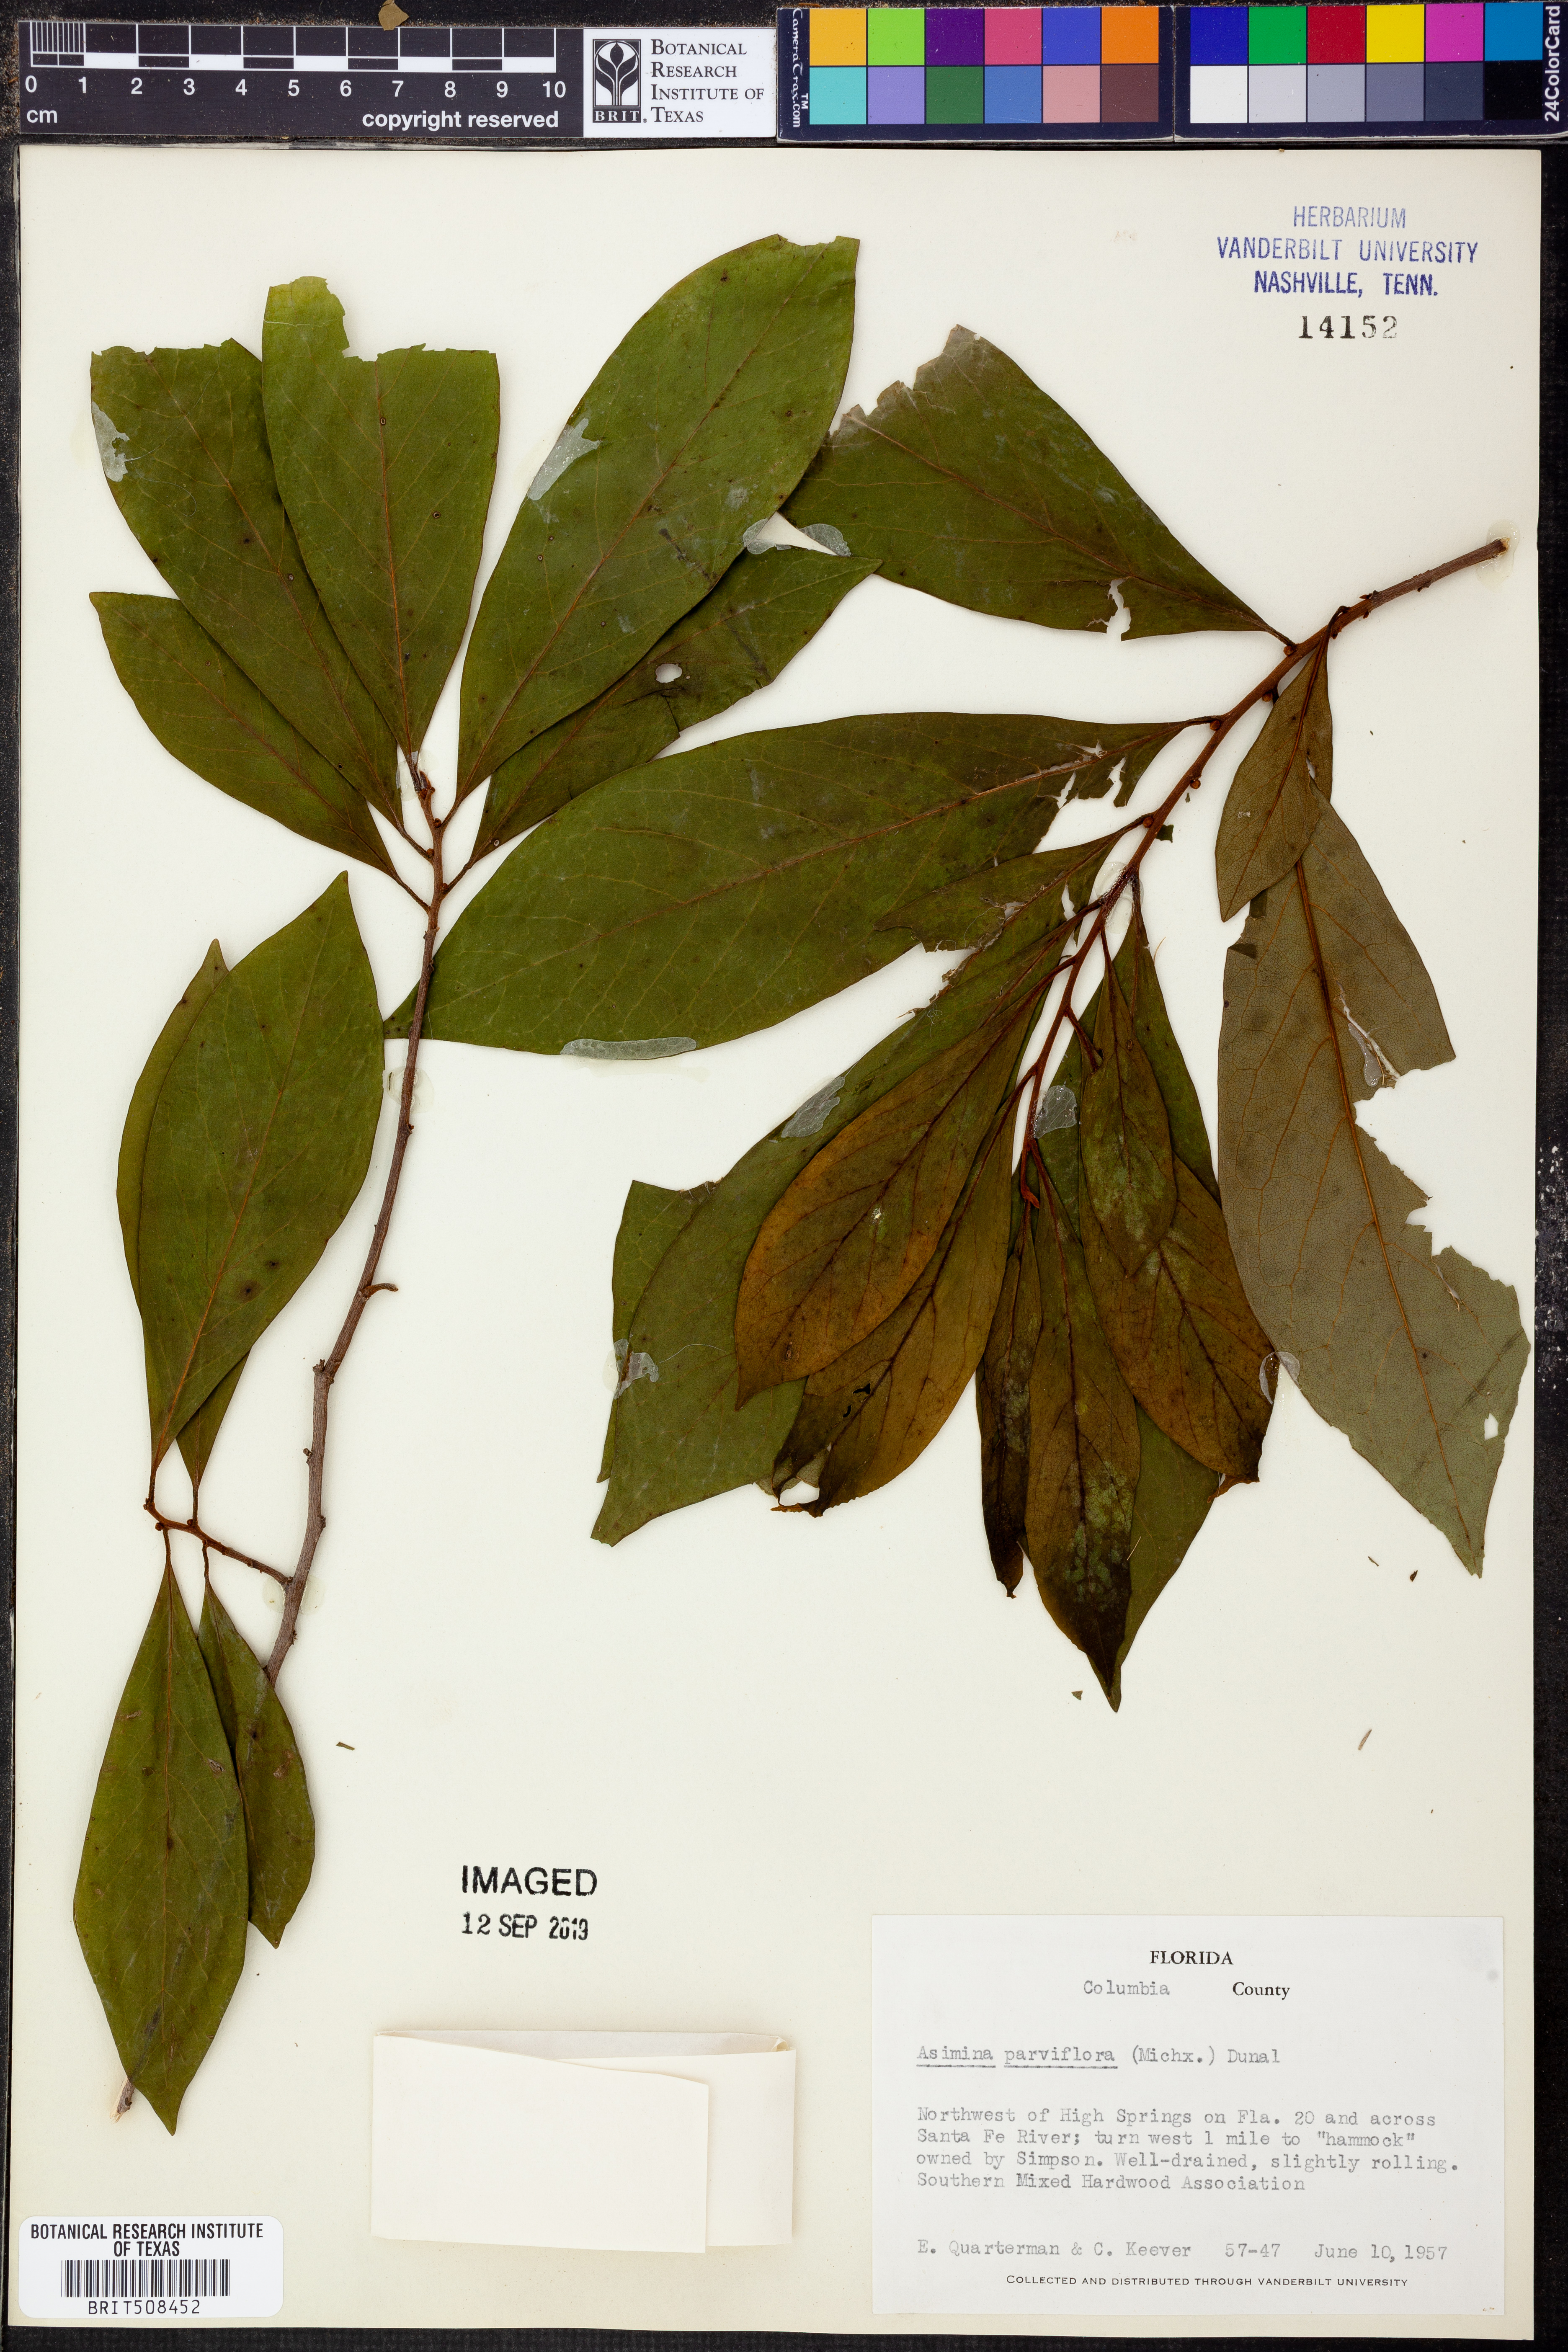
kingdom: Plantae
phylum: Tracheophyta
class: Magnoliopsida
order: Magnoliales
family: Annonaceae
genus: Asimina
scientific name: Asimina parviflora
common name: Dwarf pawpaw
